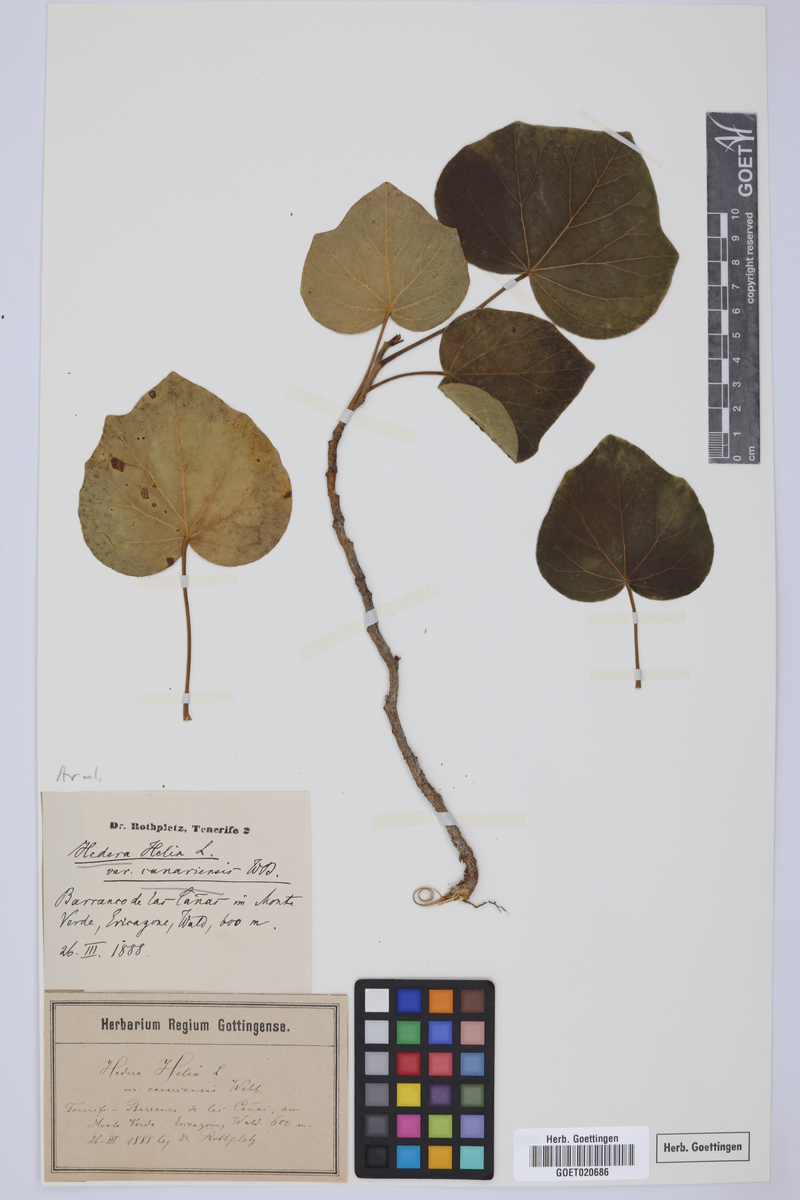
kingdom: Plantae
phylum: Tracheophyta
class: Magnoliopsida
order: Apiales
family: Araliaceae
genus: Hedera
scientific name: Hedera canariensis
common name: Madeira ivy
